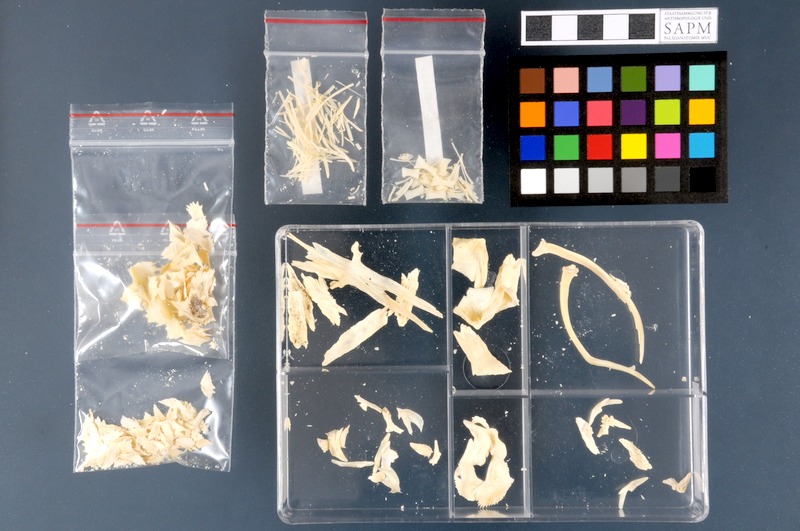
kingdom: Animalia
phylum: Chordata
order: Acipenseriformes
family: Acipenseridae
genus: Acipenser
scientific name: Acipenser ruthenus
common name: Sterlet
